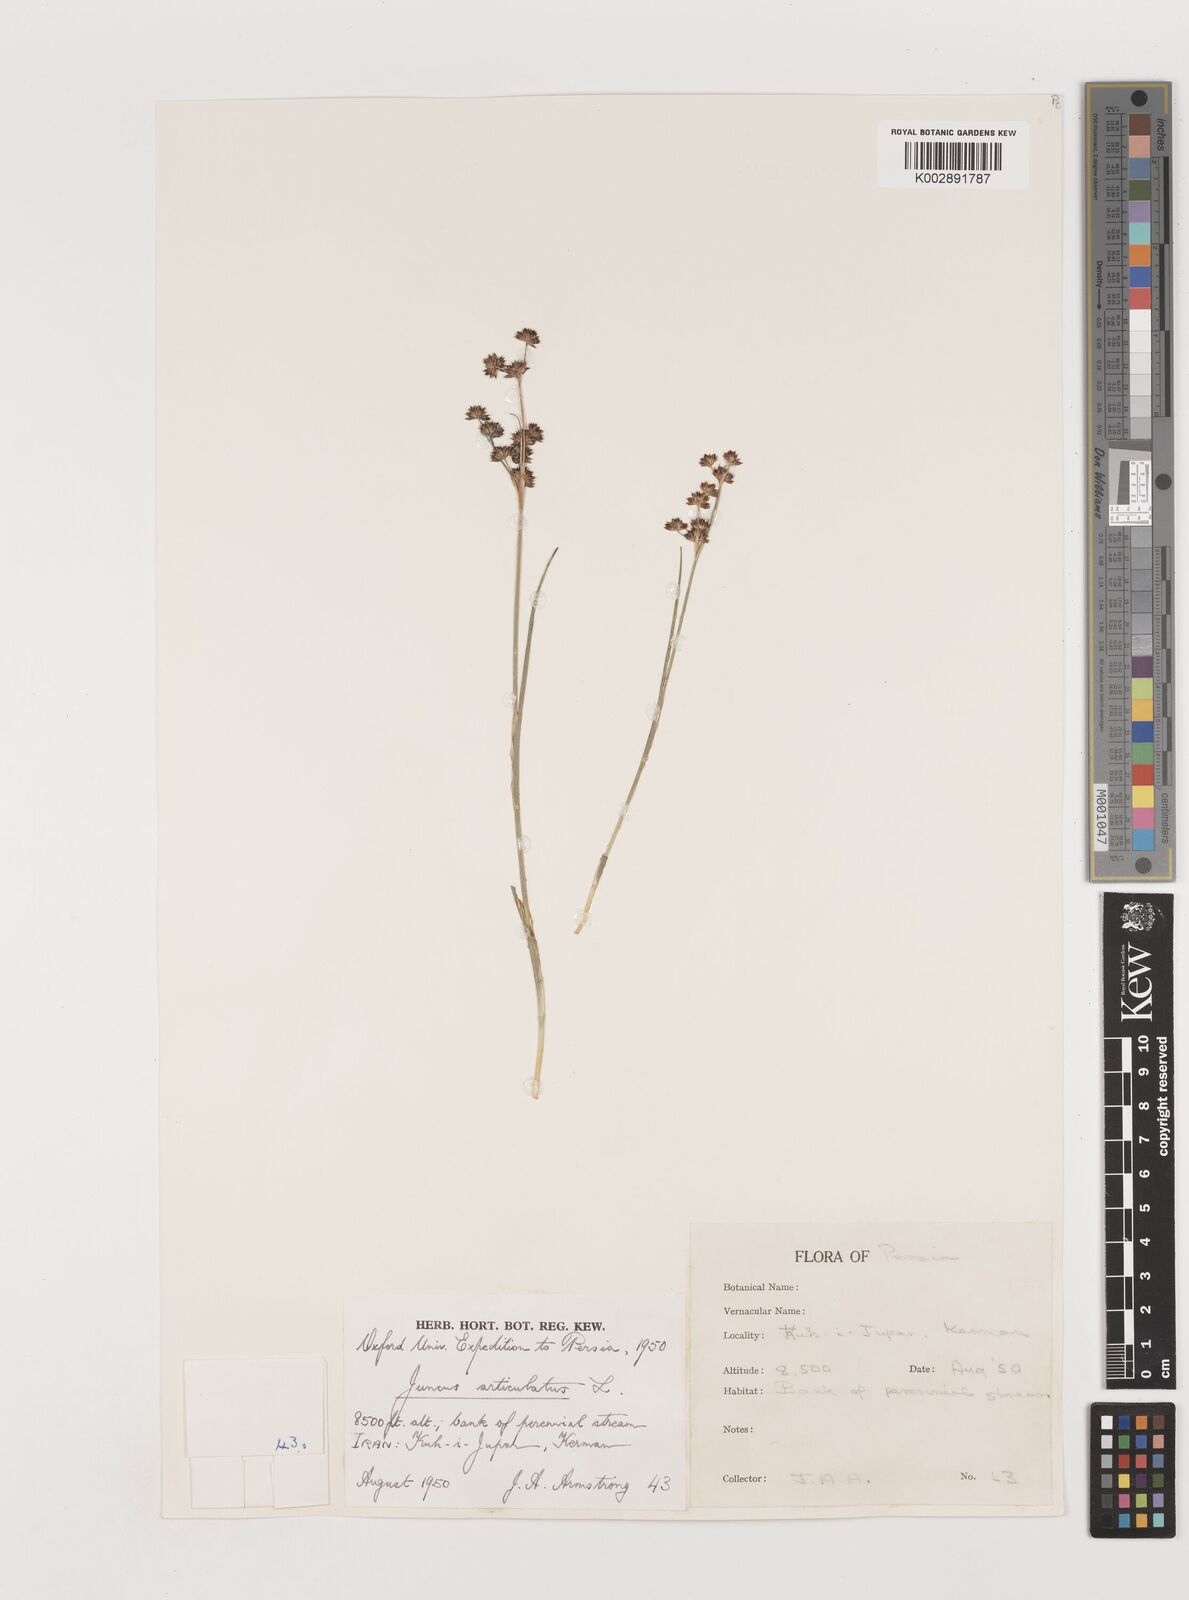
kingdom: Plantae
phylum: Tracheophyta
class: Liliopsida
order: Poales
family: Juncaceae
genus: Juncus
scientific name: Juncus articulatus
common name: Jointed rush
